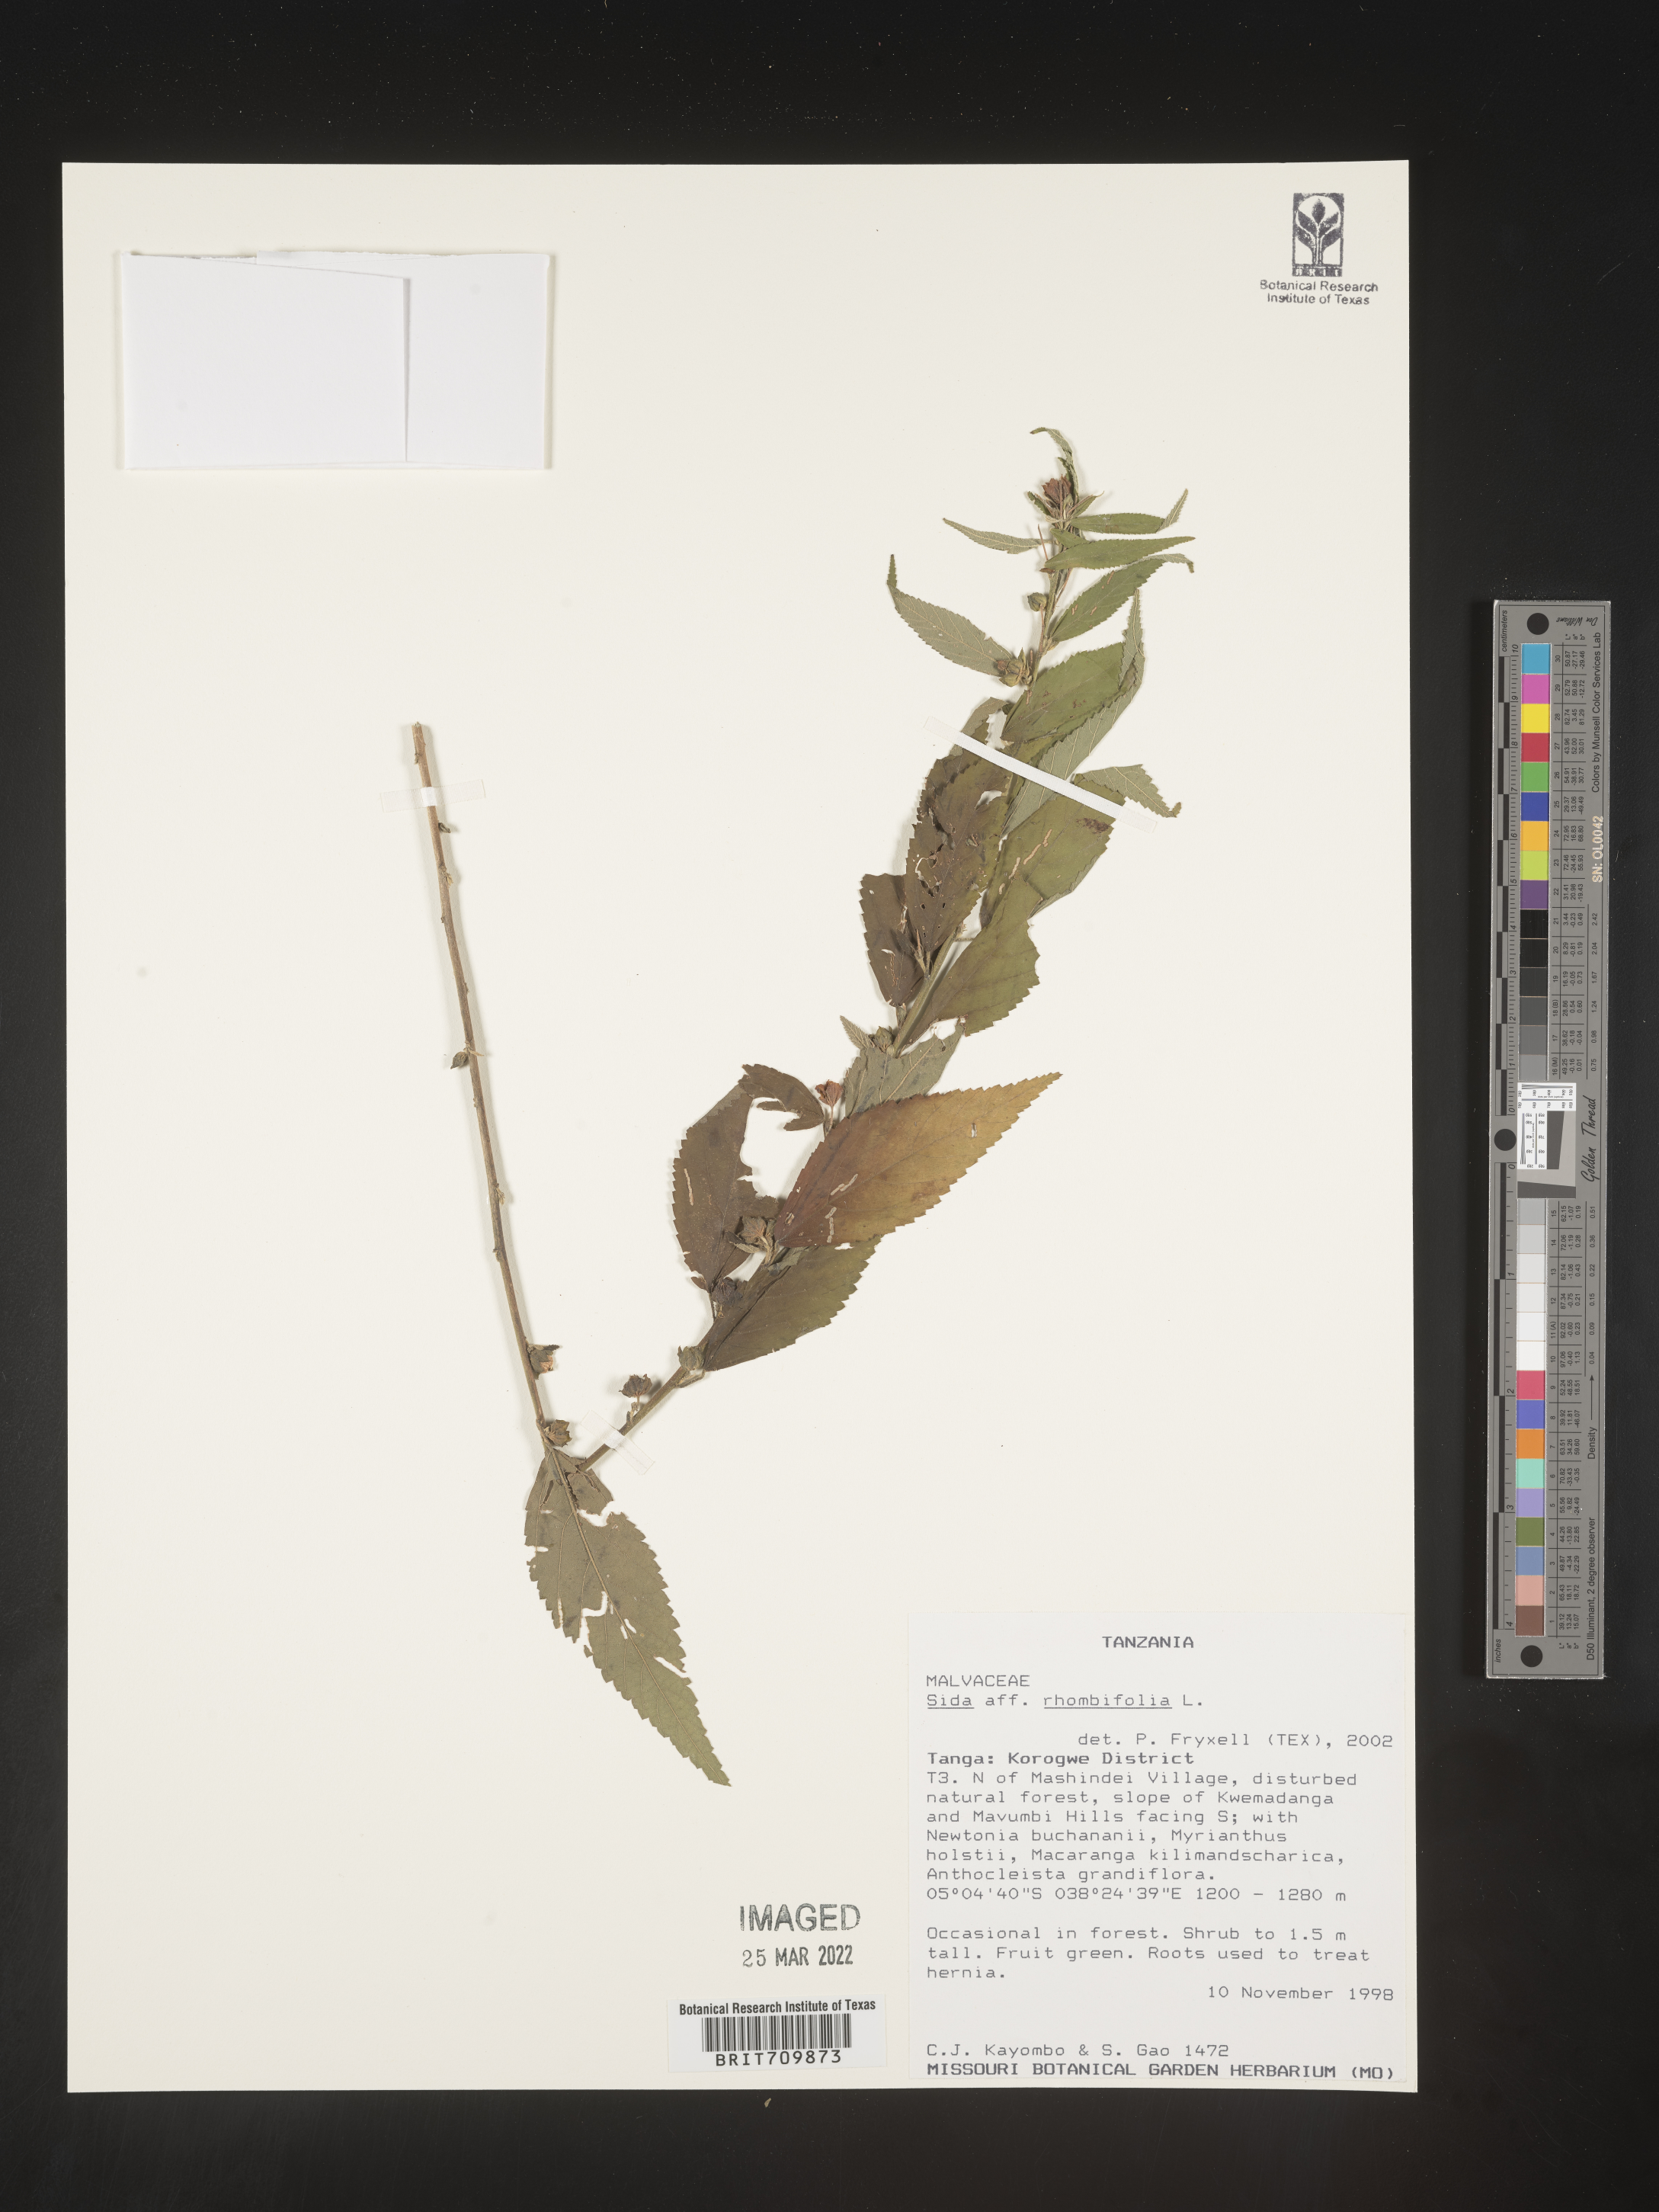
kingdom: Plantae
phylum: Tracheophyta
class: Magnoliopsida
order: Malvales
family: Malvaceae
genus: Sida
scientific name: Sida
